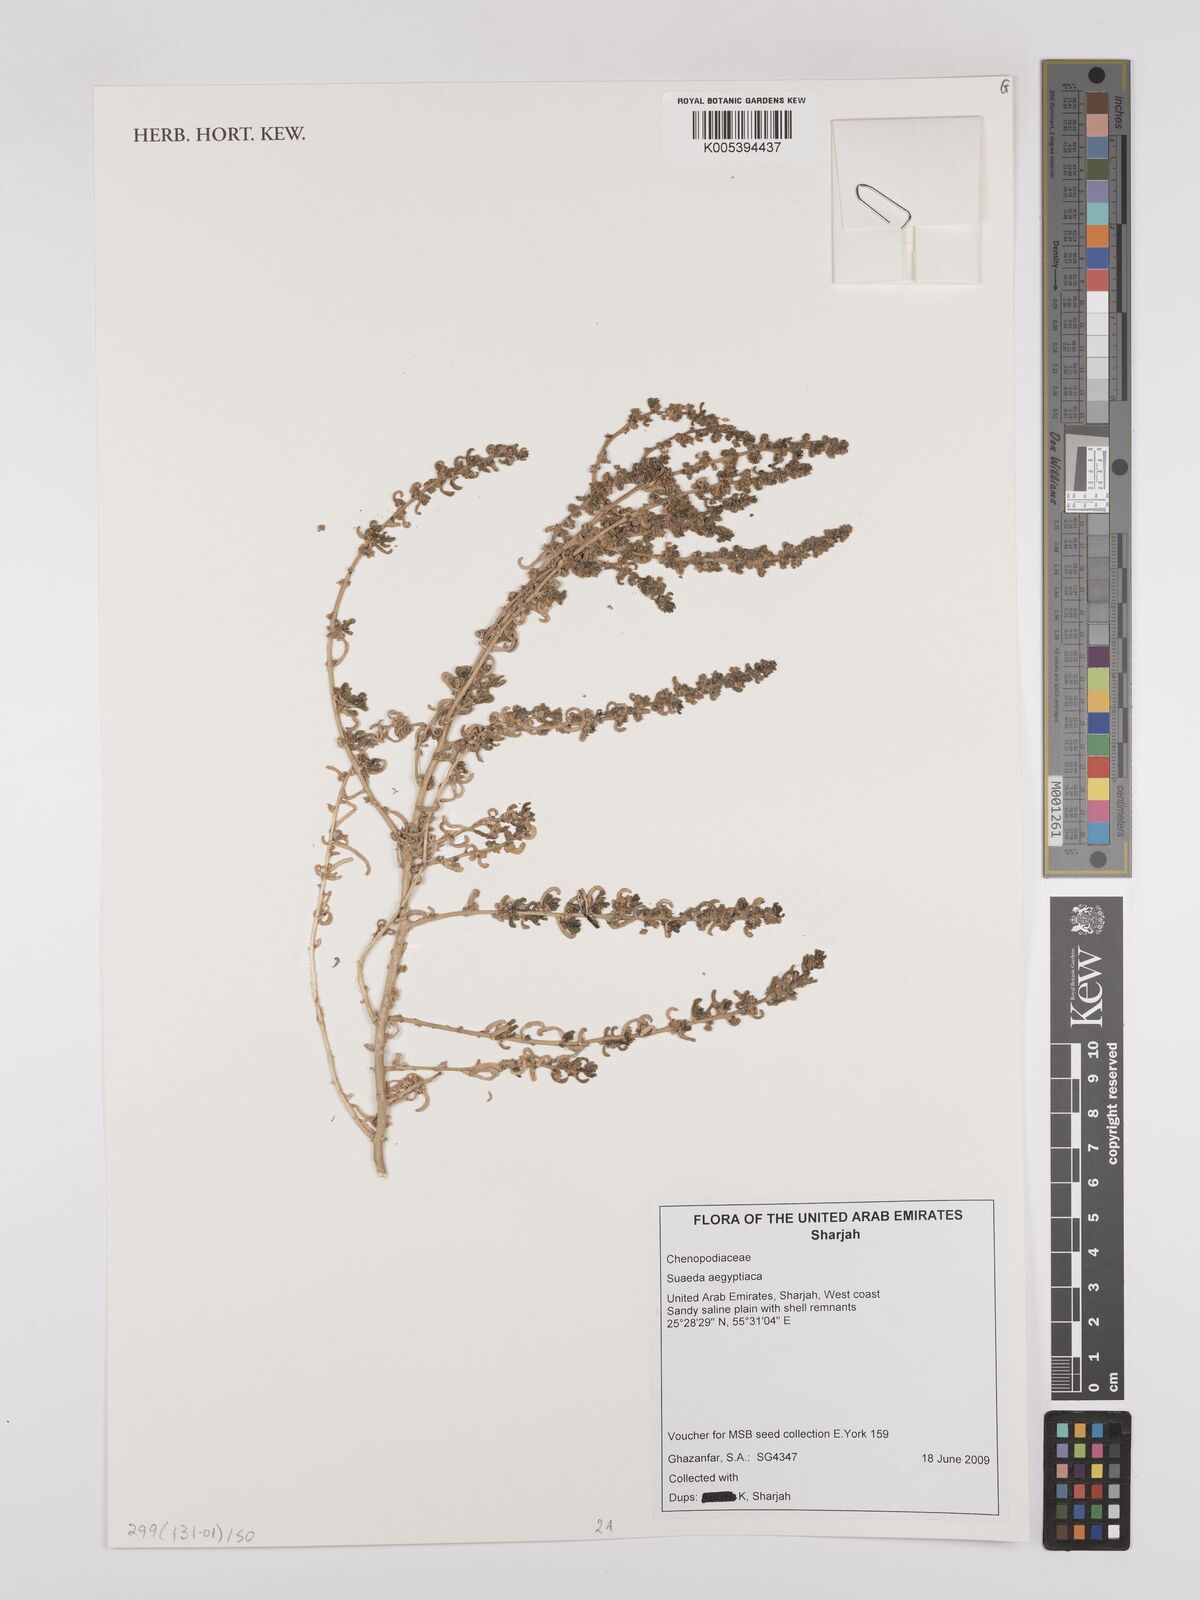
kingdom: Plantae
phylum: Tracheophyta
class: Magnoliopsida
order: Caryophyllales
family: Amaranthaceae
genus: Suaeda
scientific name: Suaeda aegyptiaca
